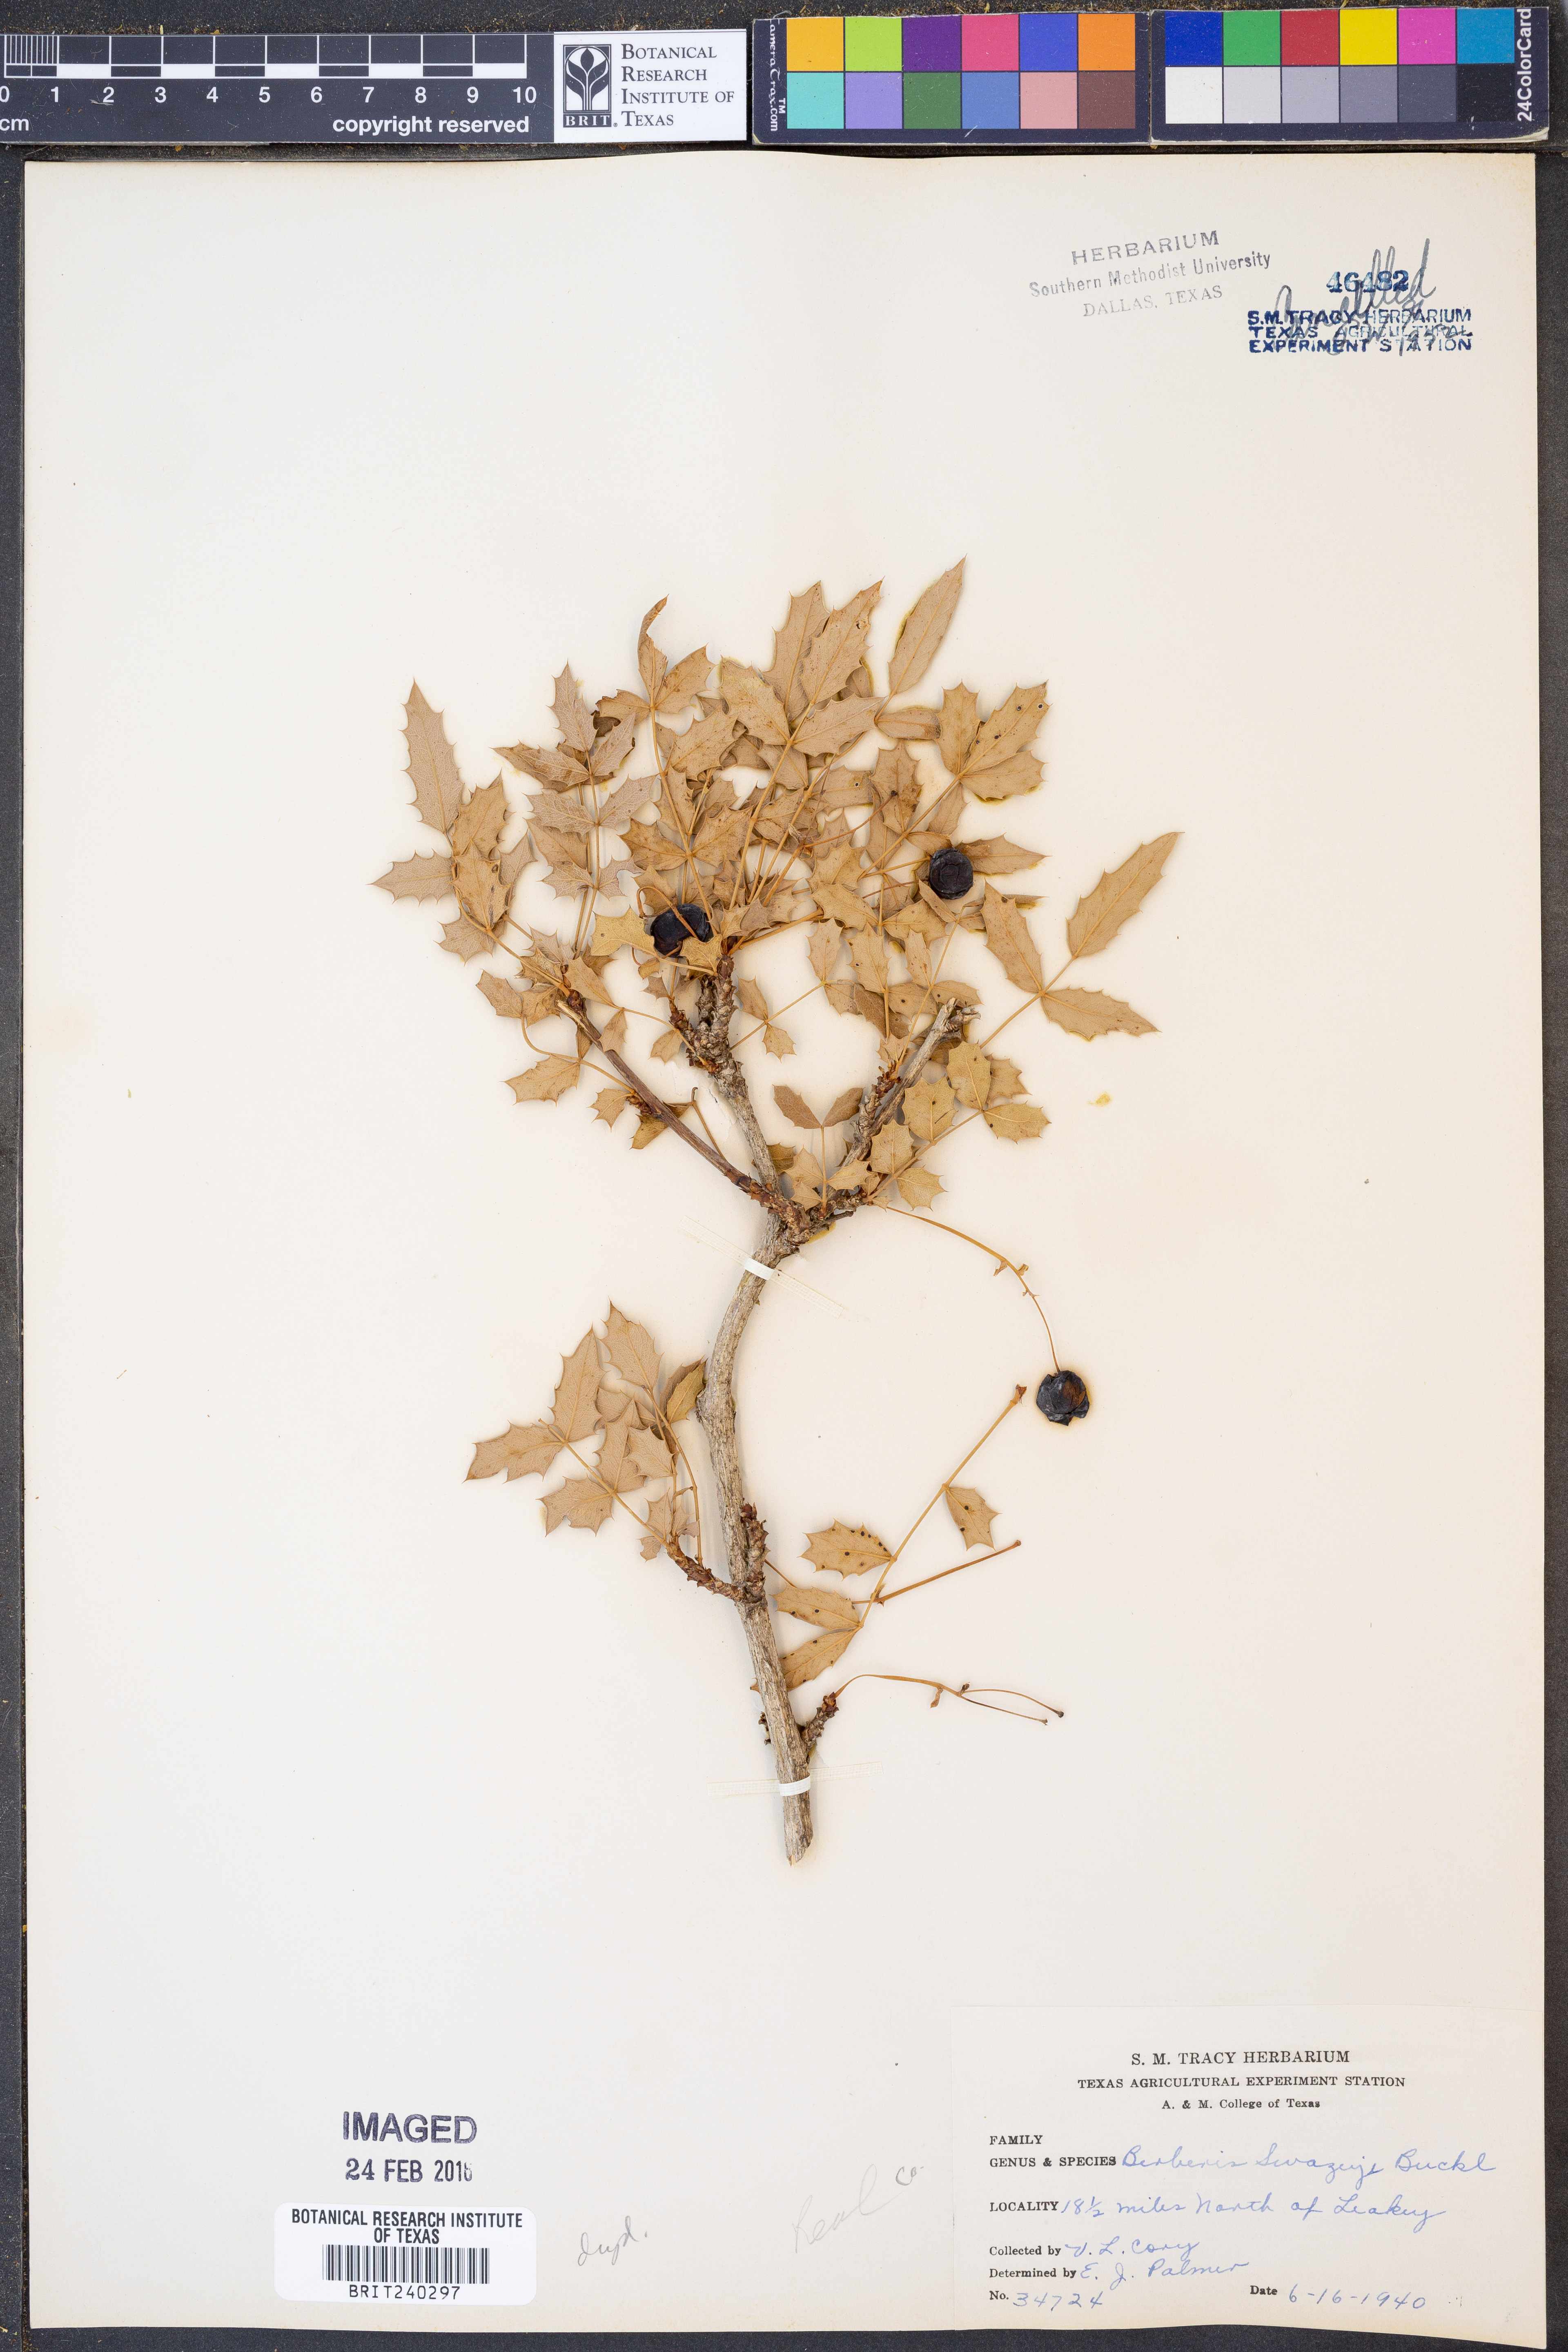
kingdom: Plantae
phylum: Tracheophyta
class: Magnoliopsida
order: Ranunculales
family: Berberidaceae
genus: Berberis
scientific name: Berberis swaseyi
